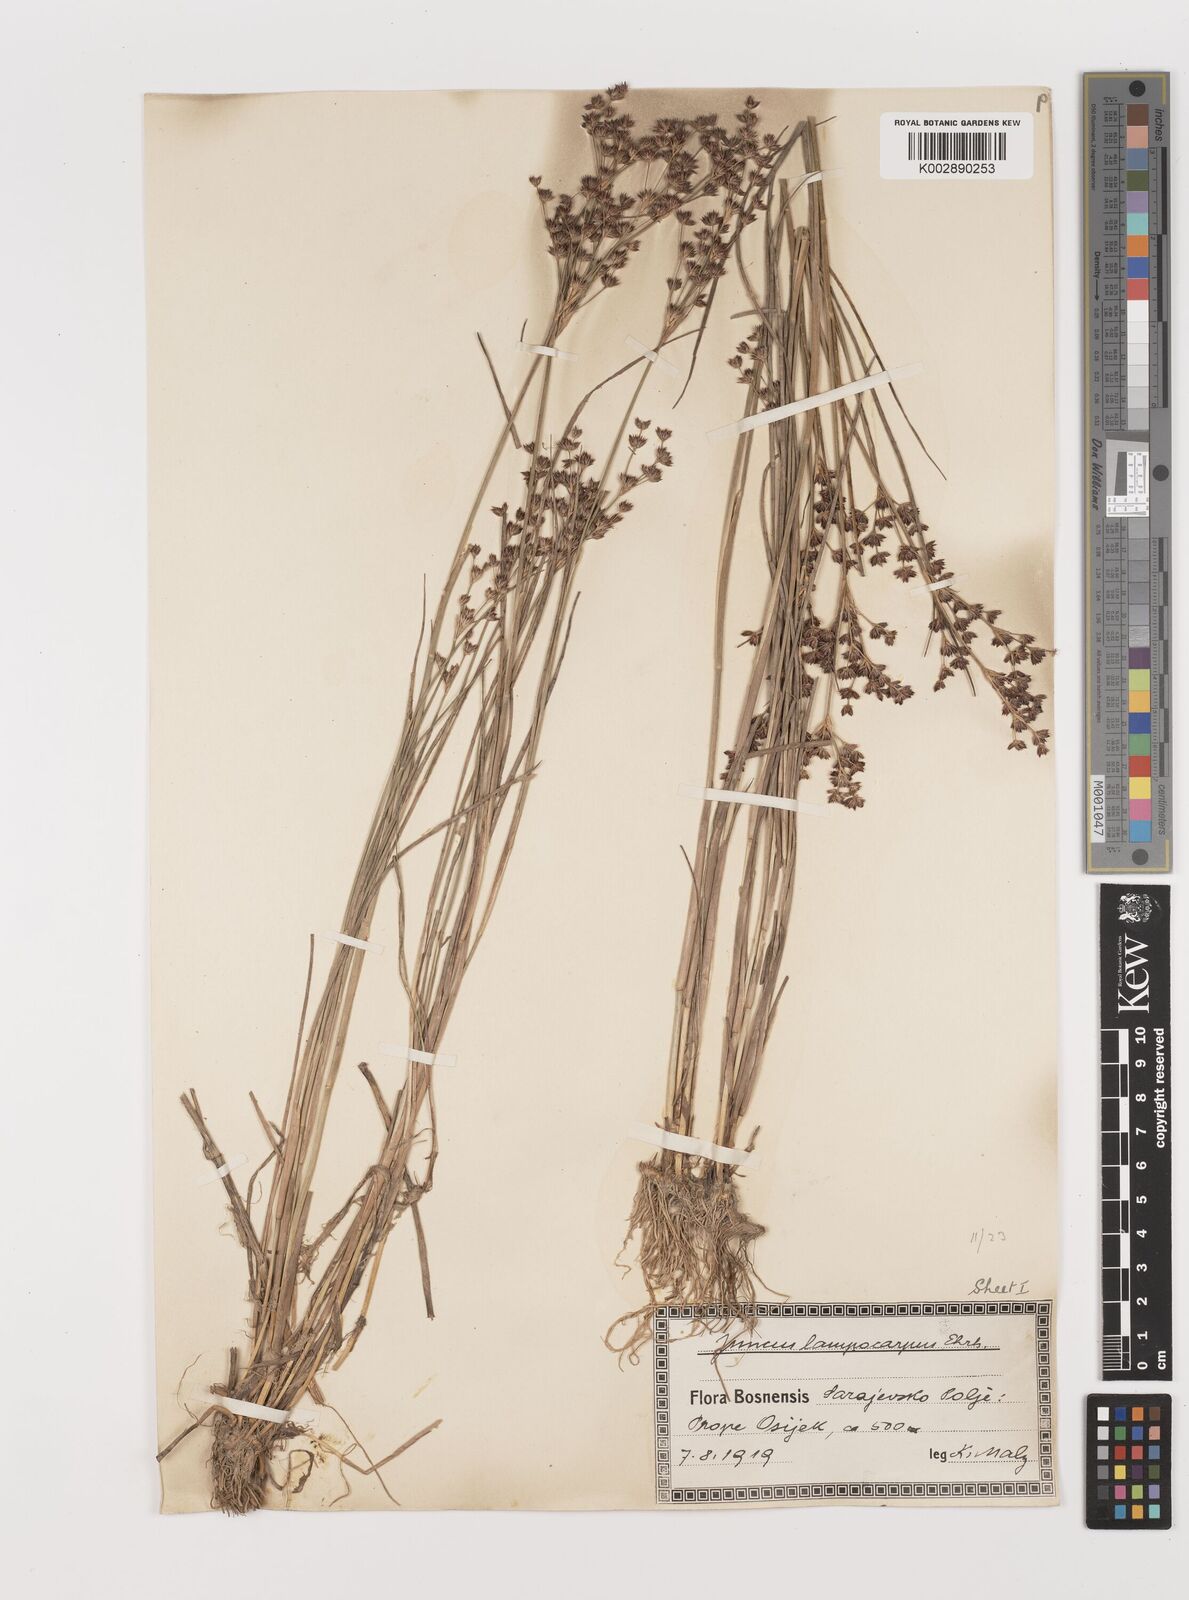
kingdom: Plantae
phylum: Tracheophyta
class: Liliopsida
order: Poales
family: Juncaceae
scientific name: Juncaceae
